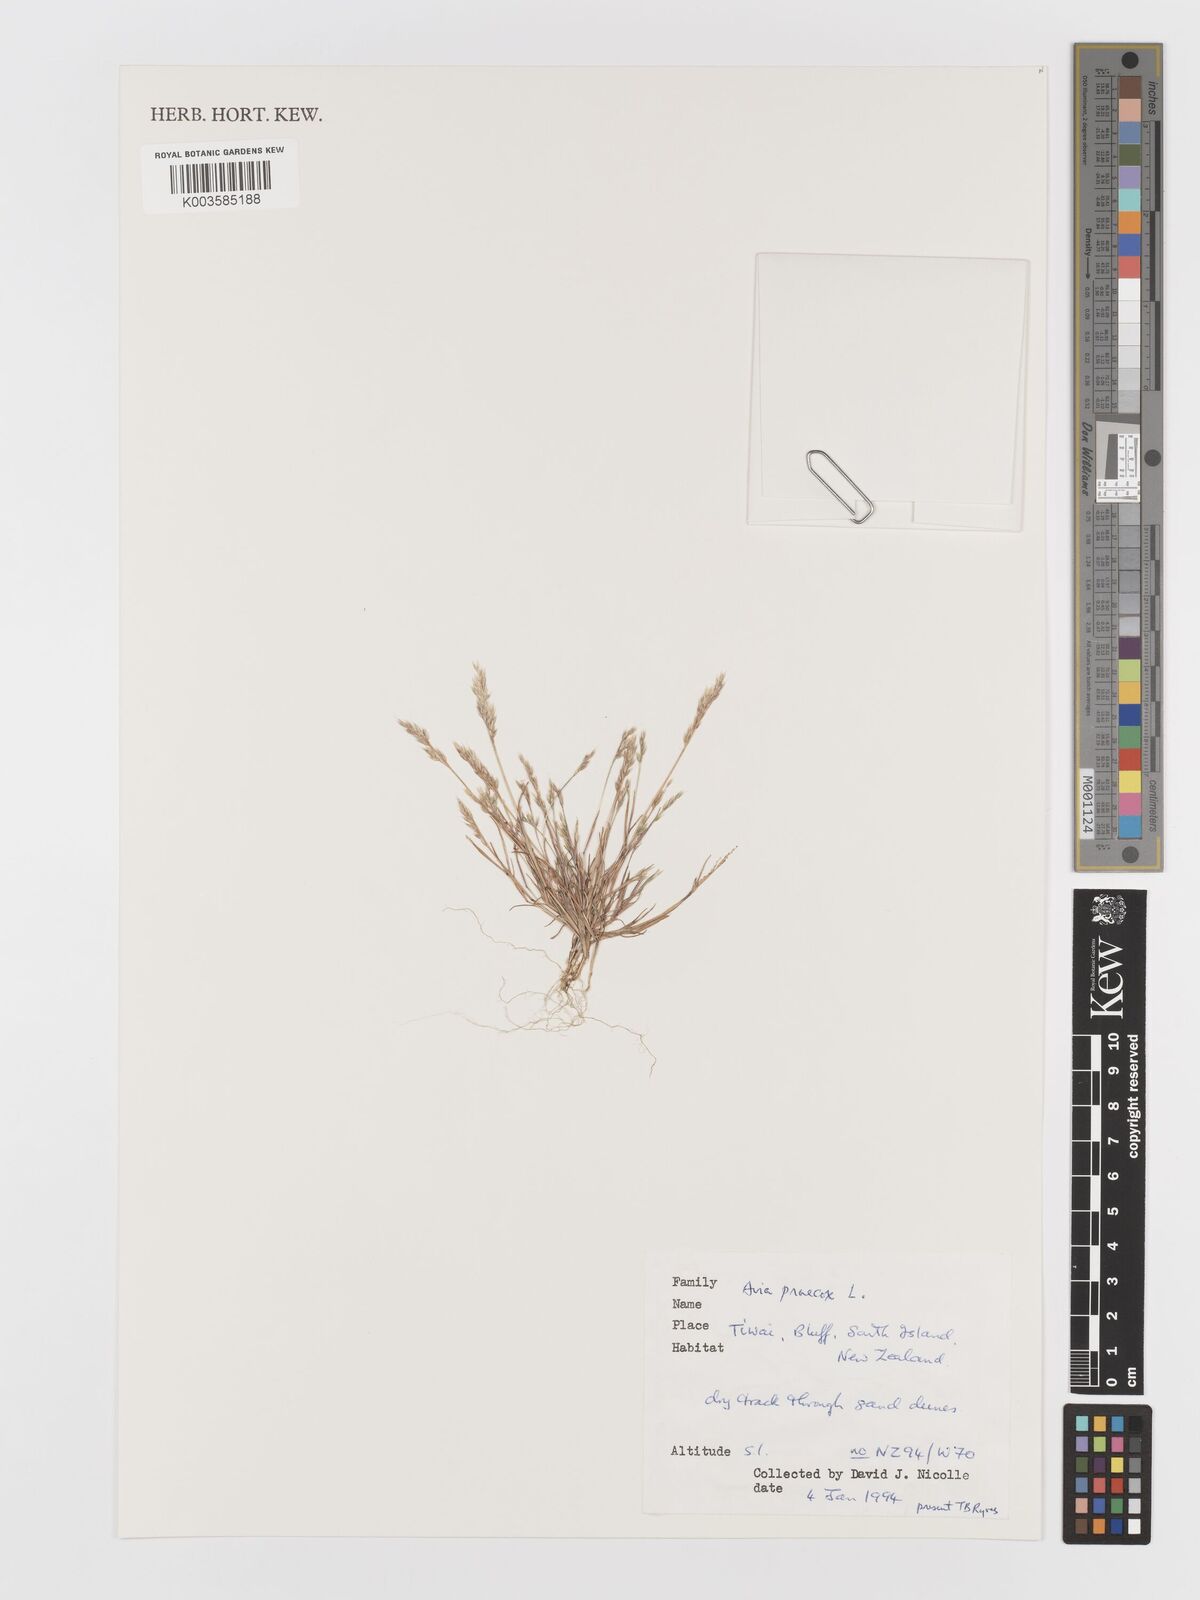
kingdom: Plantae
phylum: Tracheophyta
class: Liliopsida
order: Poales
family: Poaceae
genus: Aira
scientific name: Aira praecox
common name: Early hair-grass
